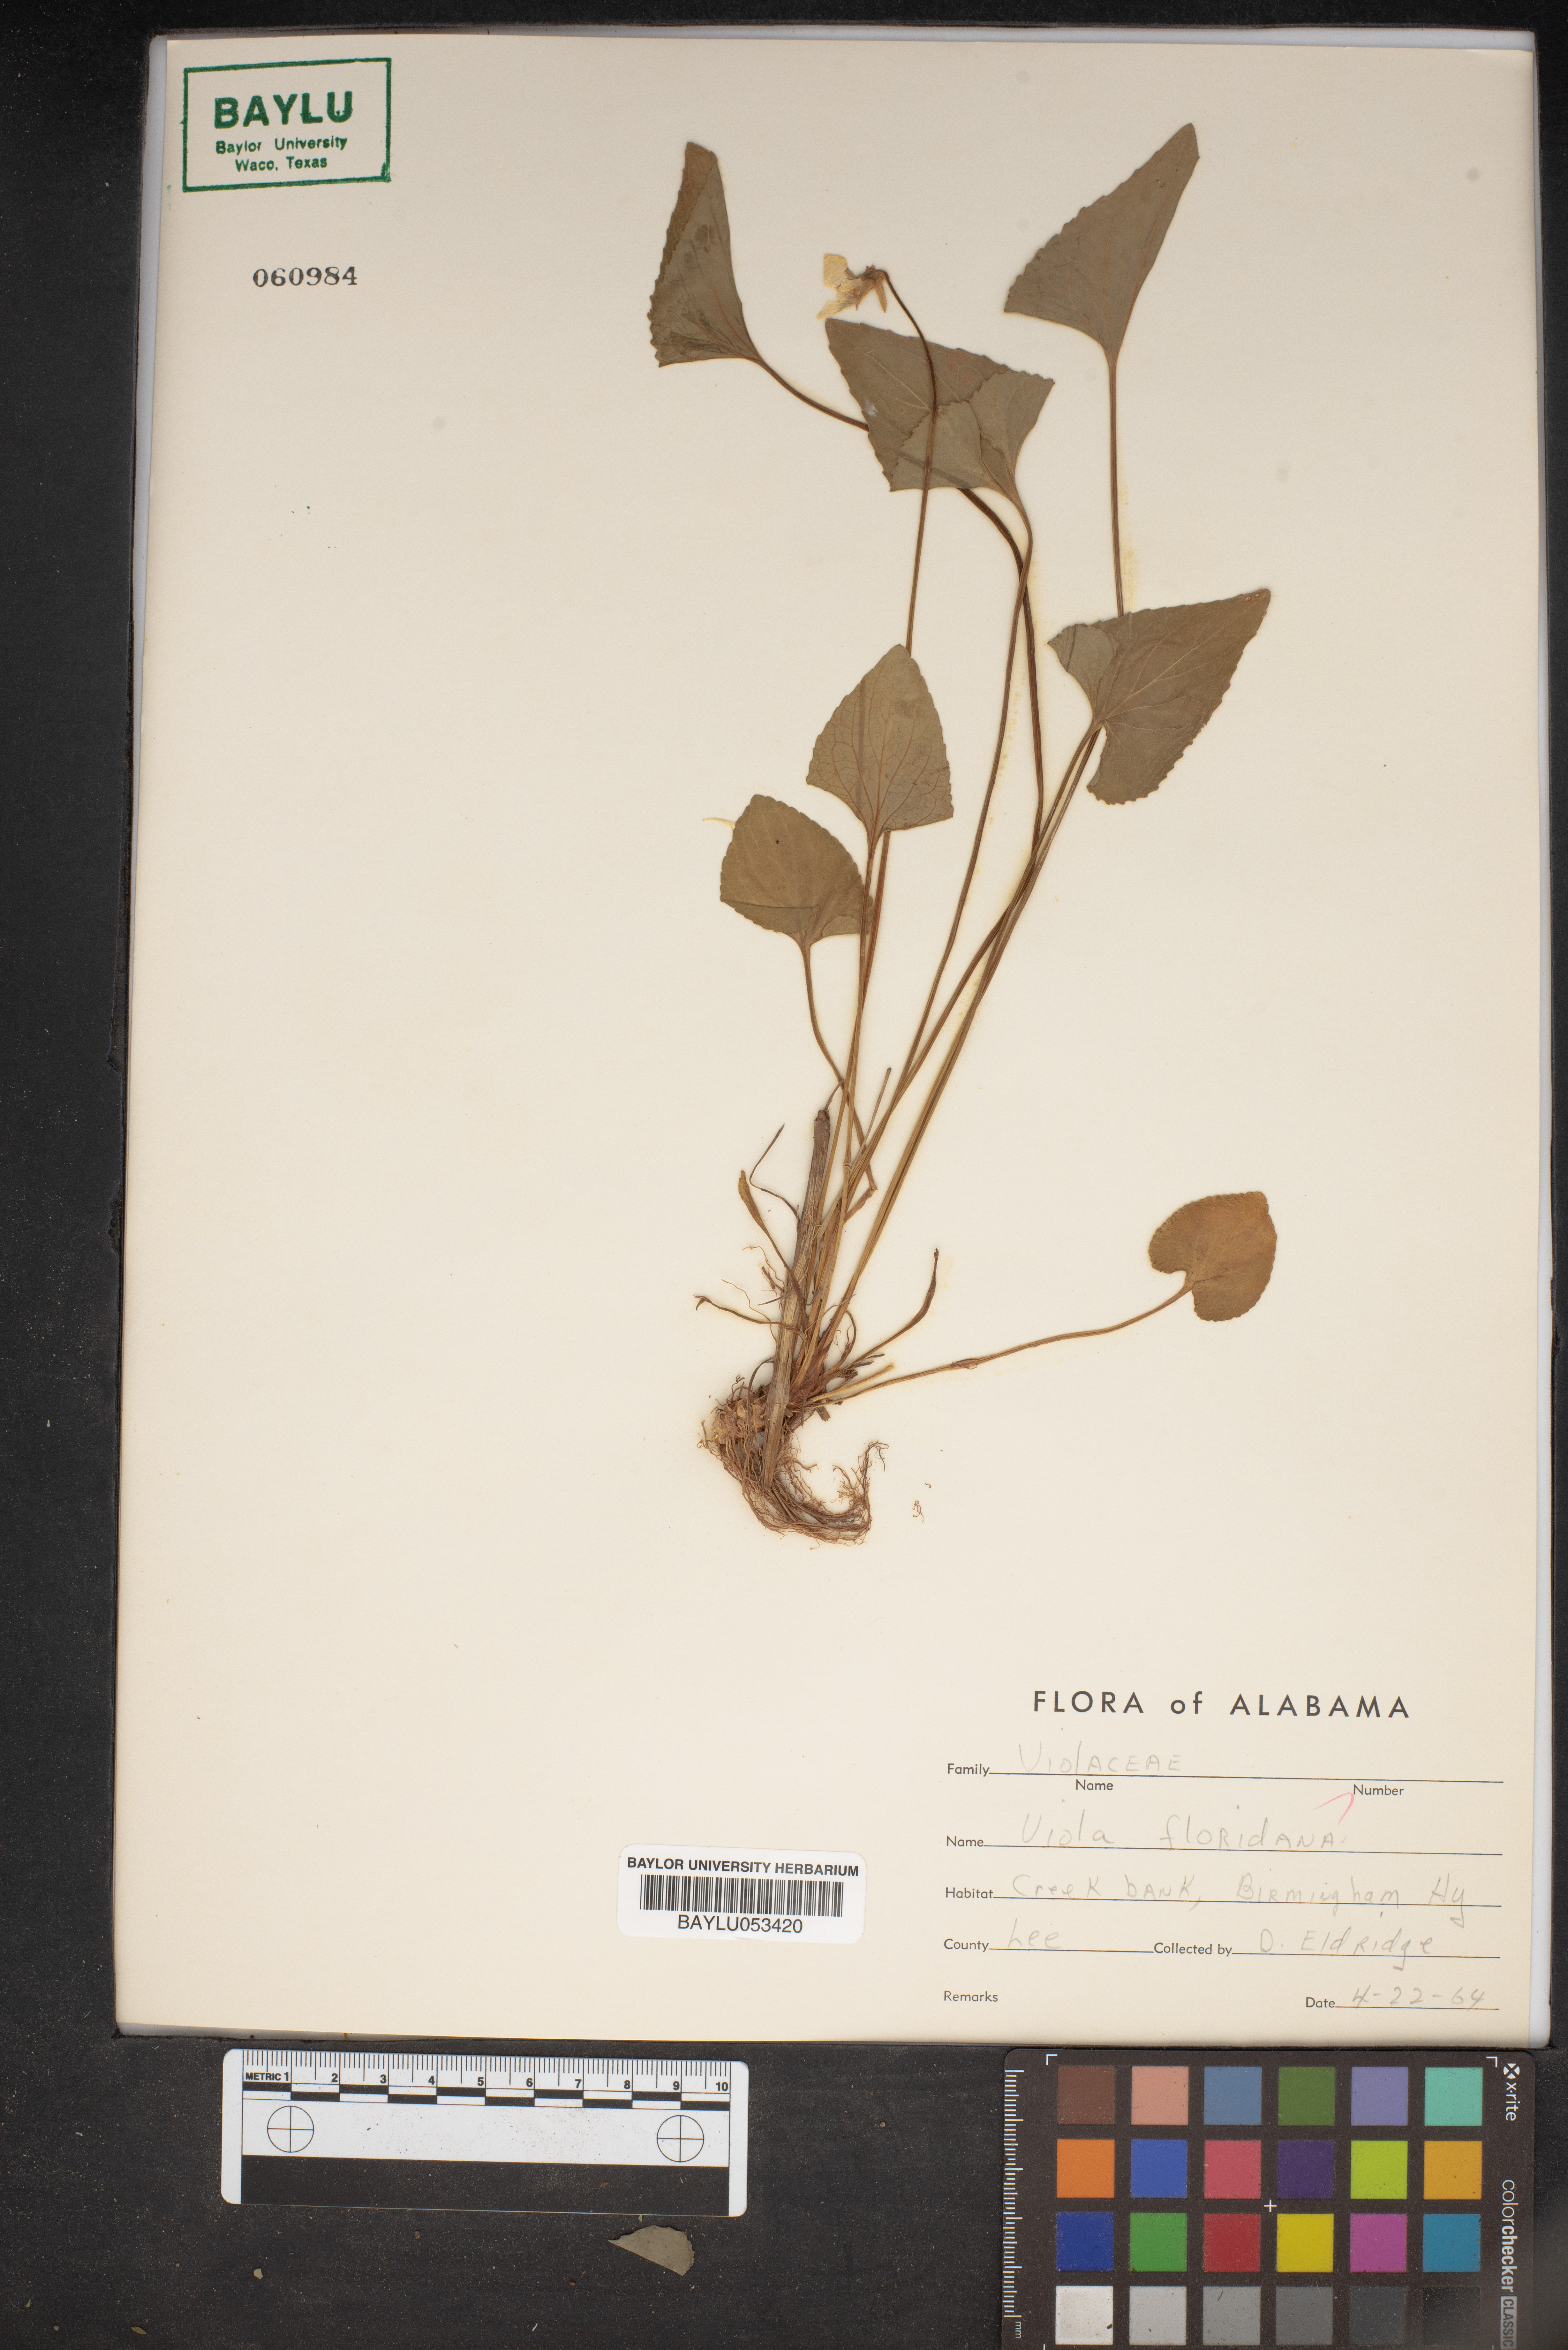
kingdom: Plantae
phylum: Tracheophyta
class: Magnoliopsida
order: Malpighiales
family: Violaceae
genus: Viola
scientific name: Viola floridana
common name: Florida violet
